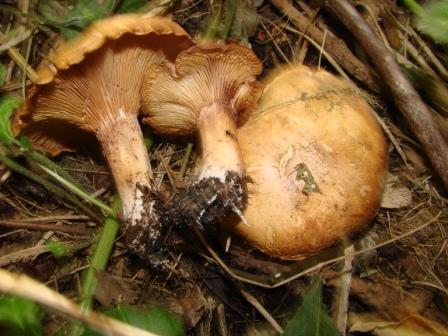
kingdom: Fungi
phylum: Basidiomycota
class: Agaricomycetes
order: Agaricales
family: Entolomataceae
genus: Clitopilus
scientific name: Clitopilus geminus
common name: kødfarvet troldhat
